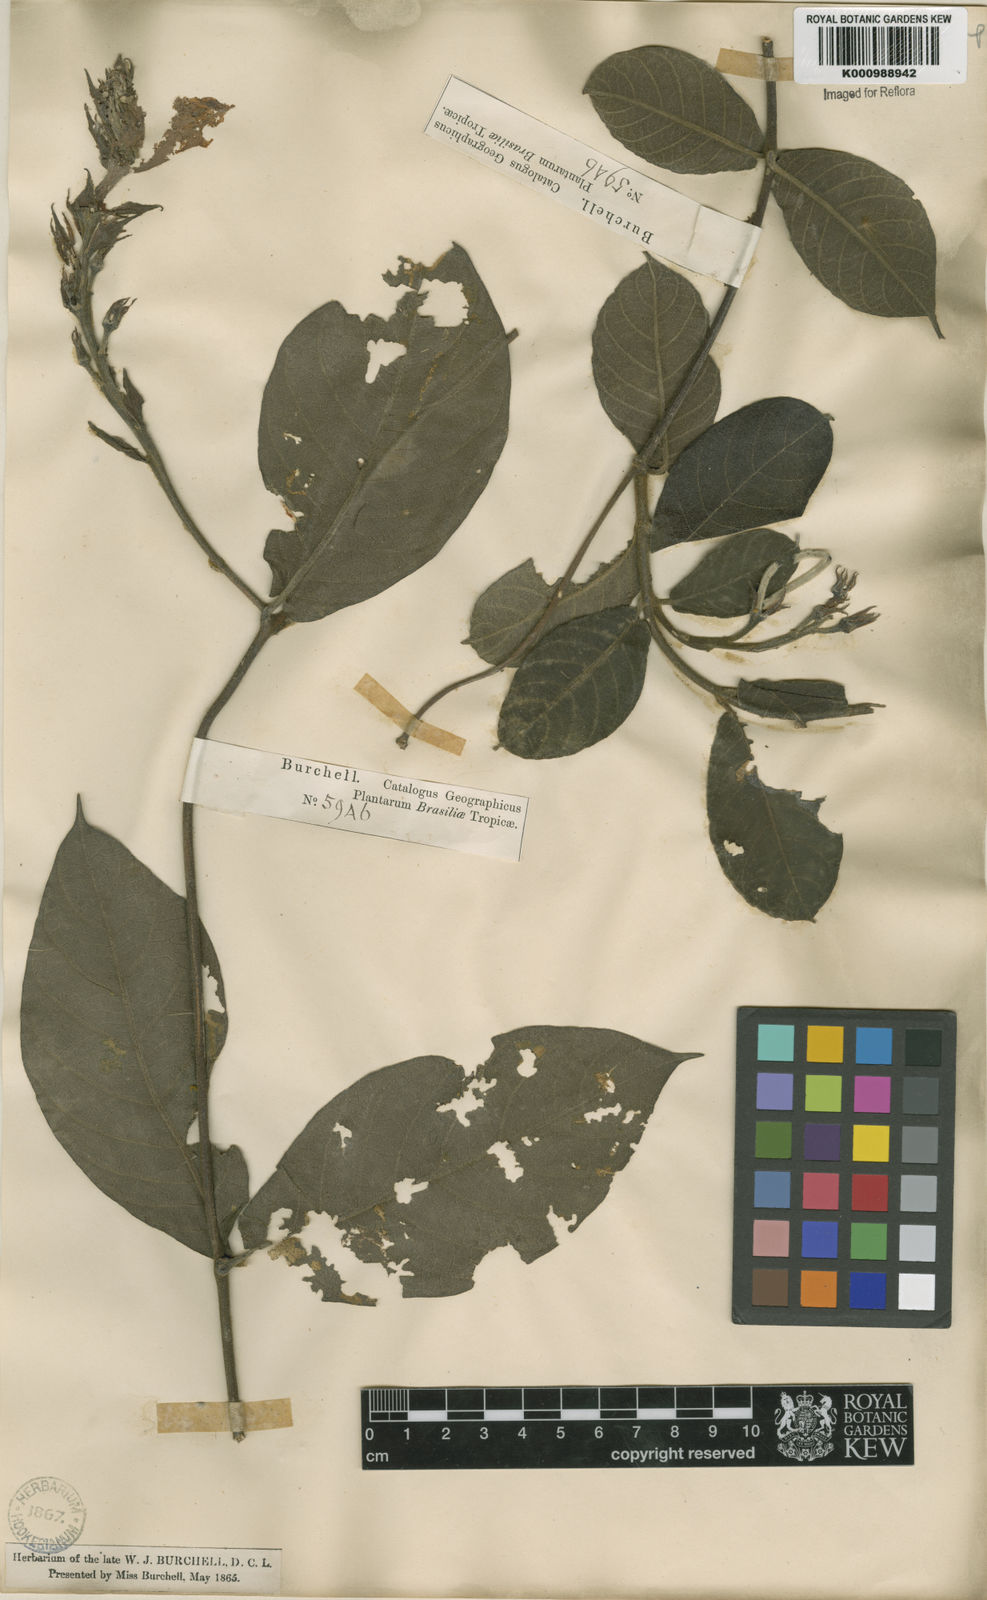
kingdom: Plantae
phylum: Tracheophyta
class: Magnoliopsida
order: Gentianales
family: Apocynaceae
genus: Mandevilla
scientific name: Mandevilla hirsuta
